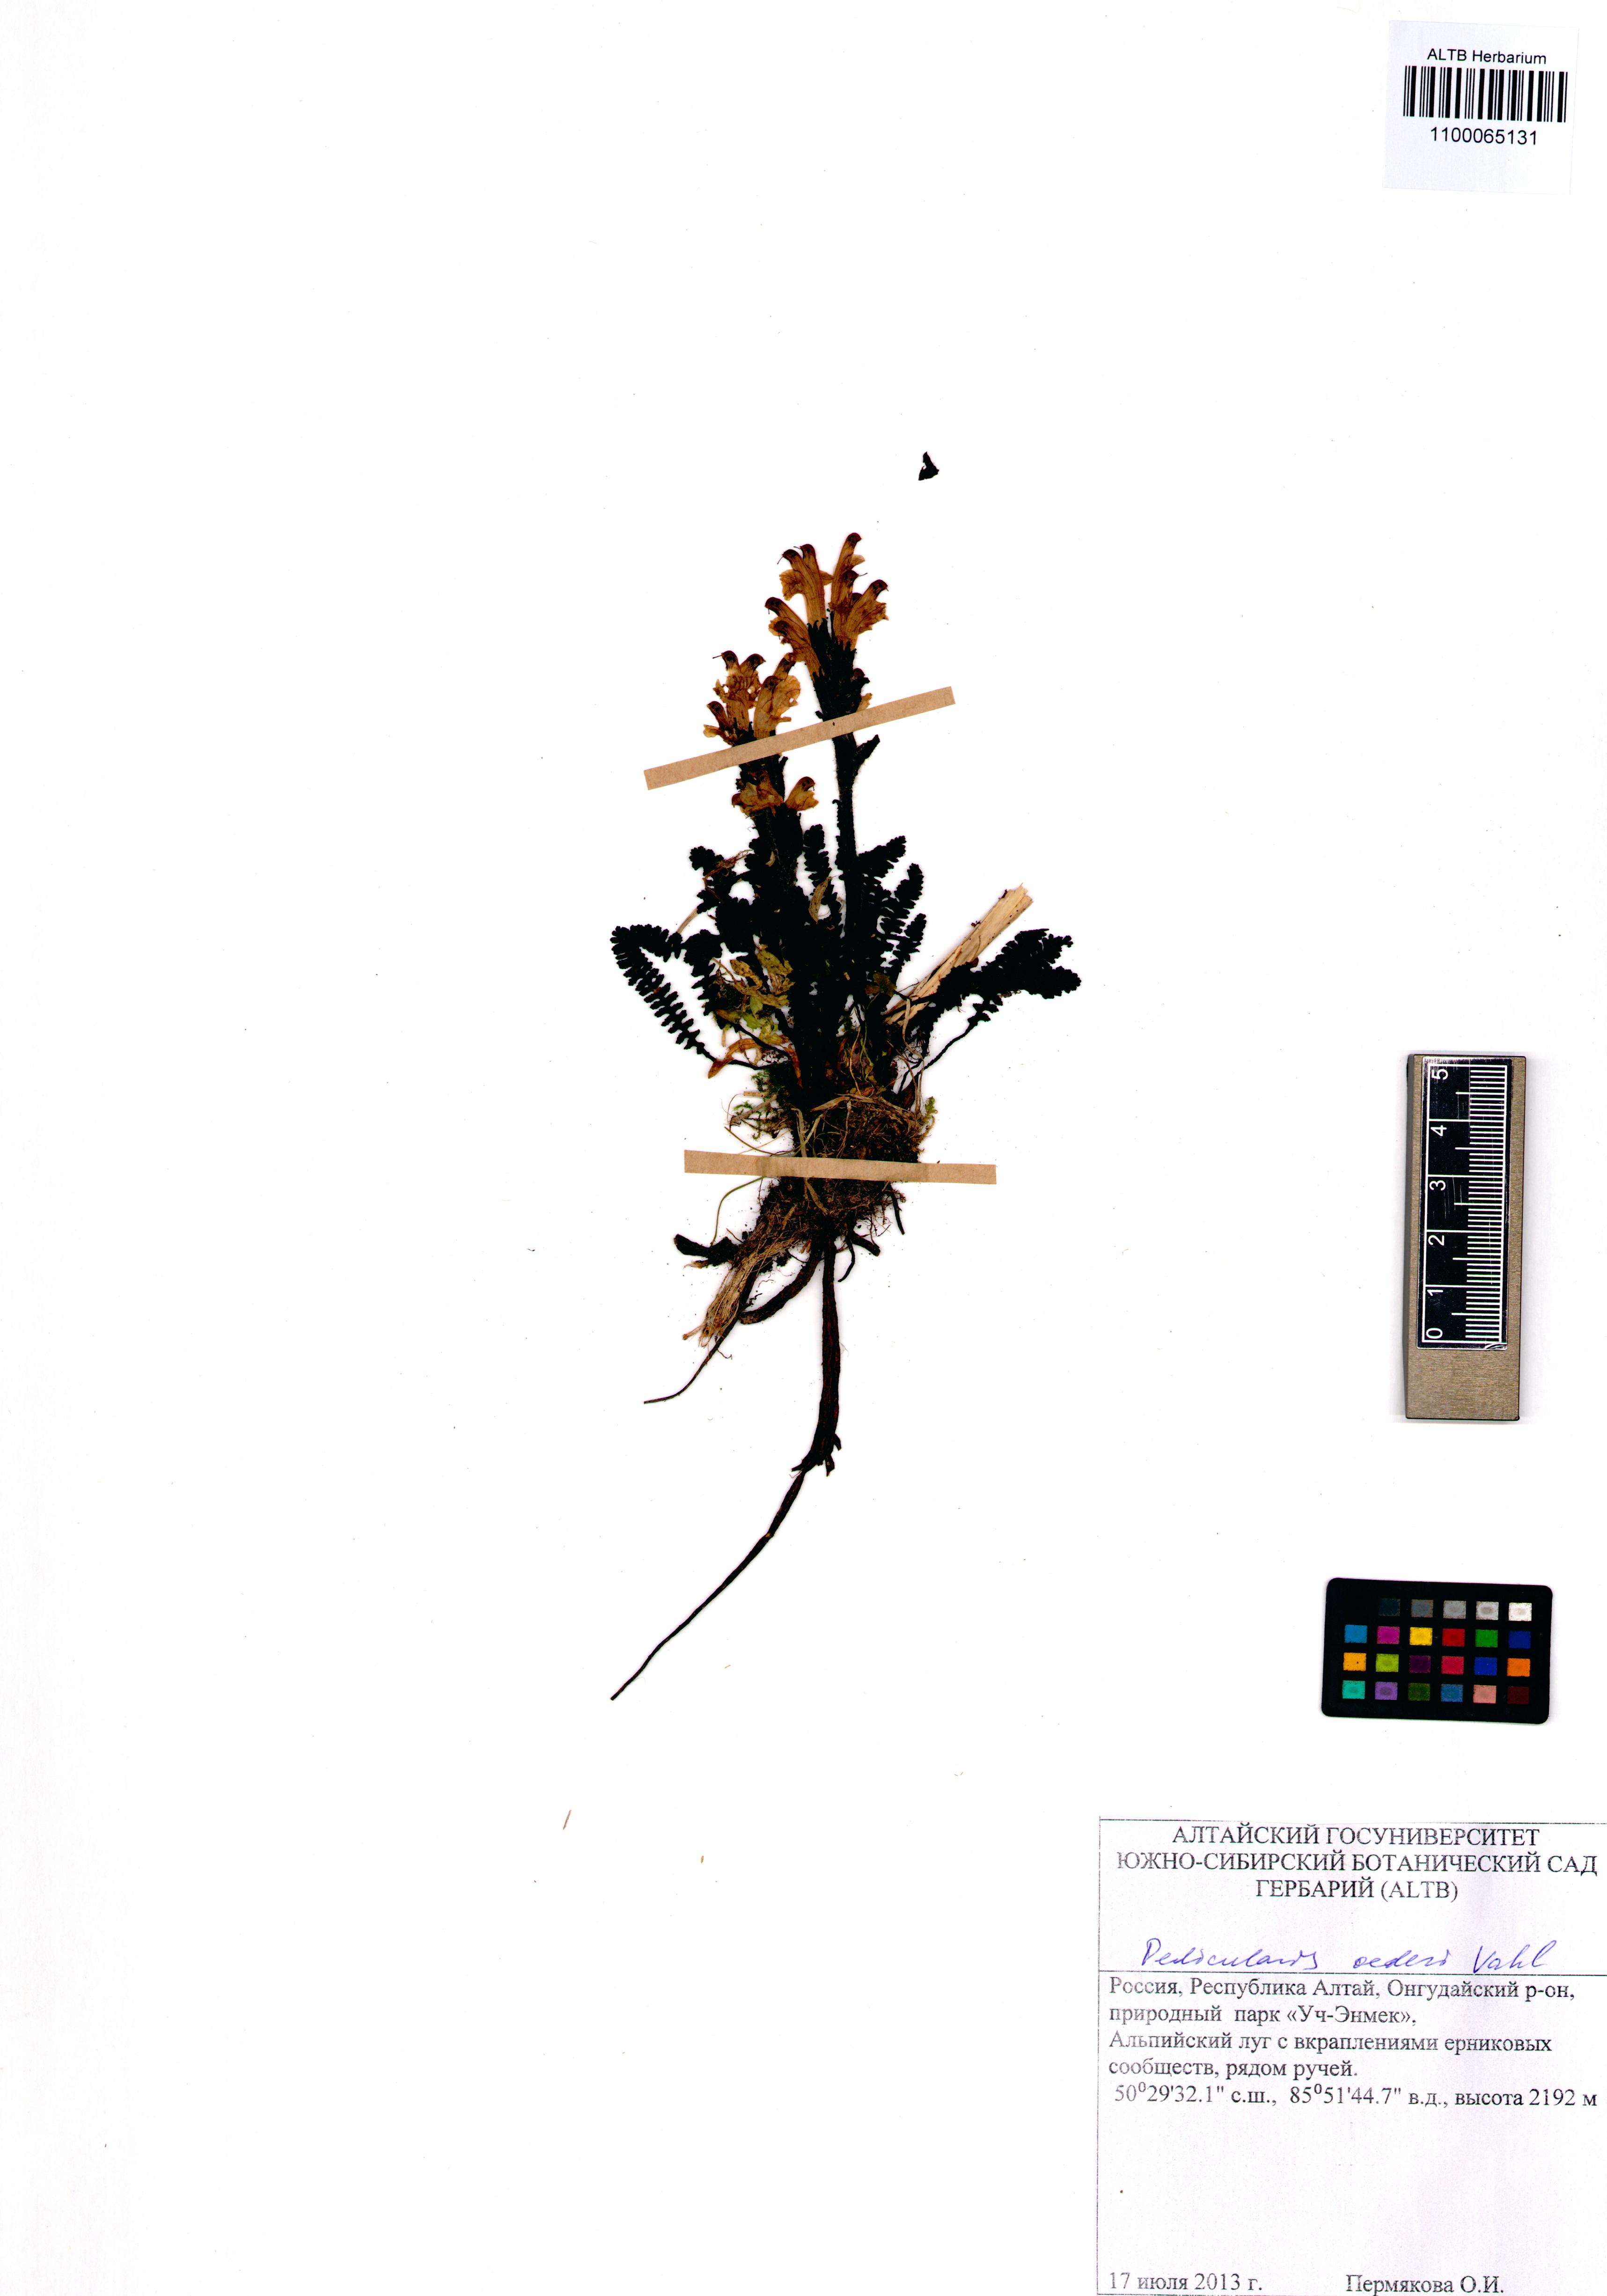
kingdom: Plantae
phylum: Tracheophyta
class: Magnoliopsida
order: Lamiales
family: Orobanchaceae
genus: Pedicularis
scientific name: Pedicularis oederi
